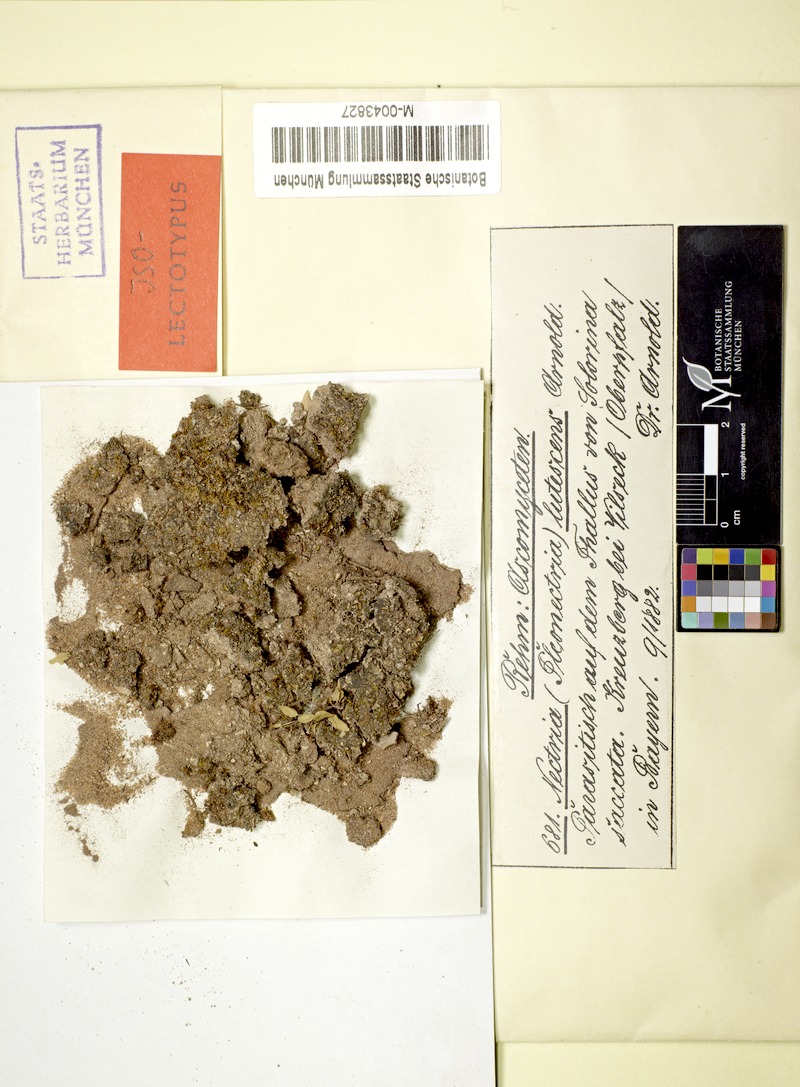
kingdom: Fungi
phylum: Ascomycota
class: Lecanoromycetes
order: Peltigerales
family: Peltigeraceae
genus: Solorina
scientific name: Solorina saccata
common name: Common chocolate chip lichen
